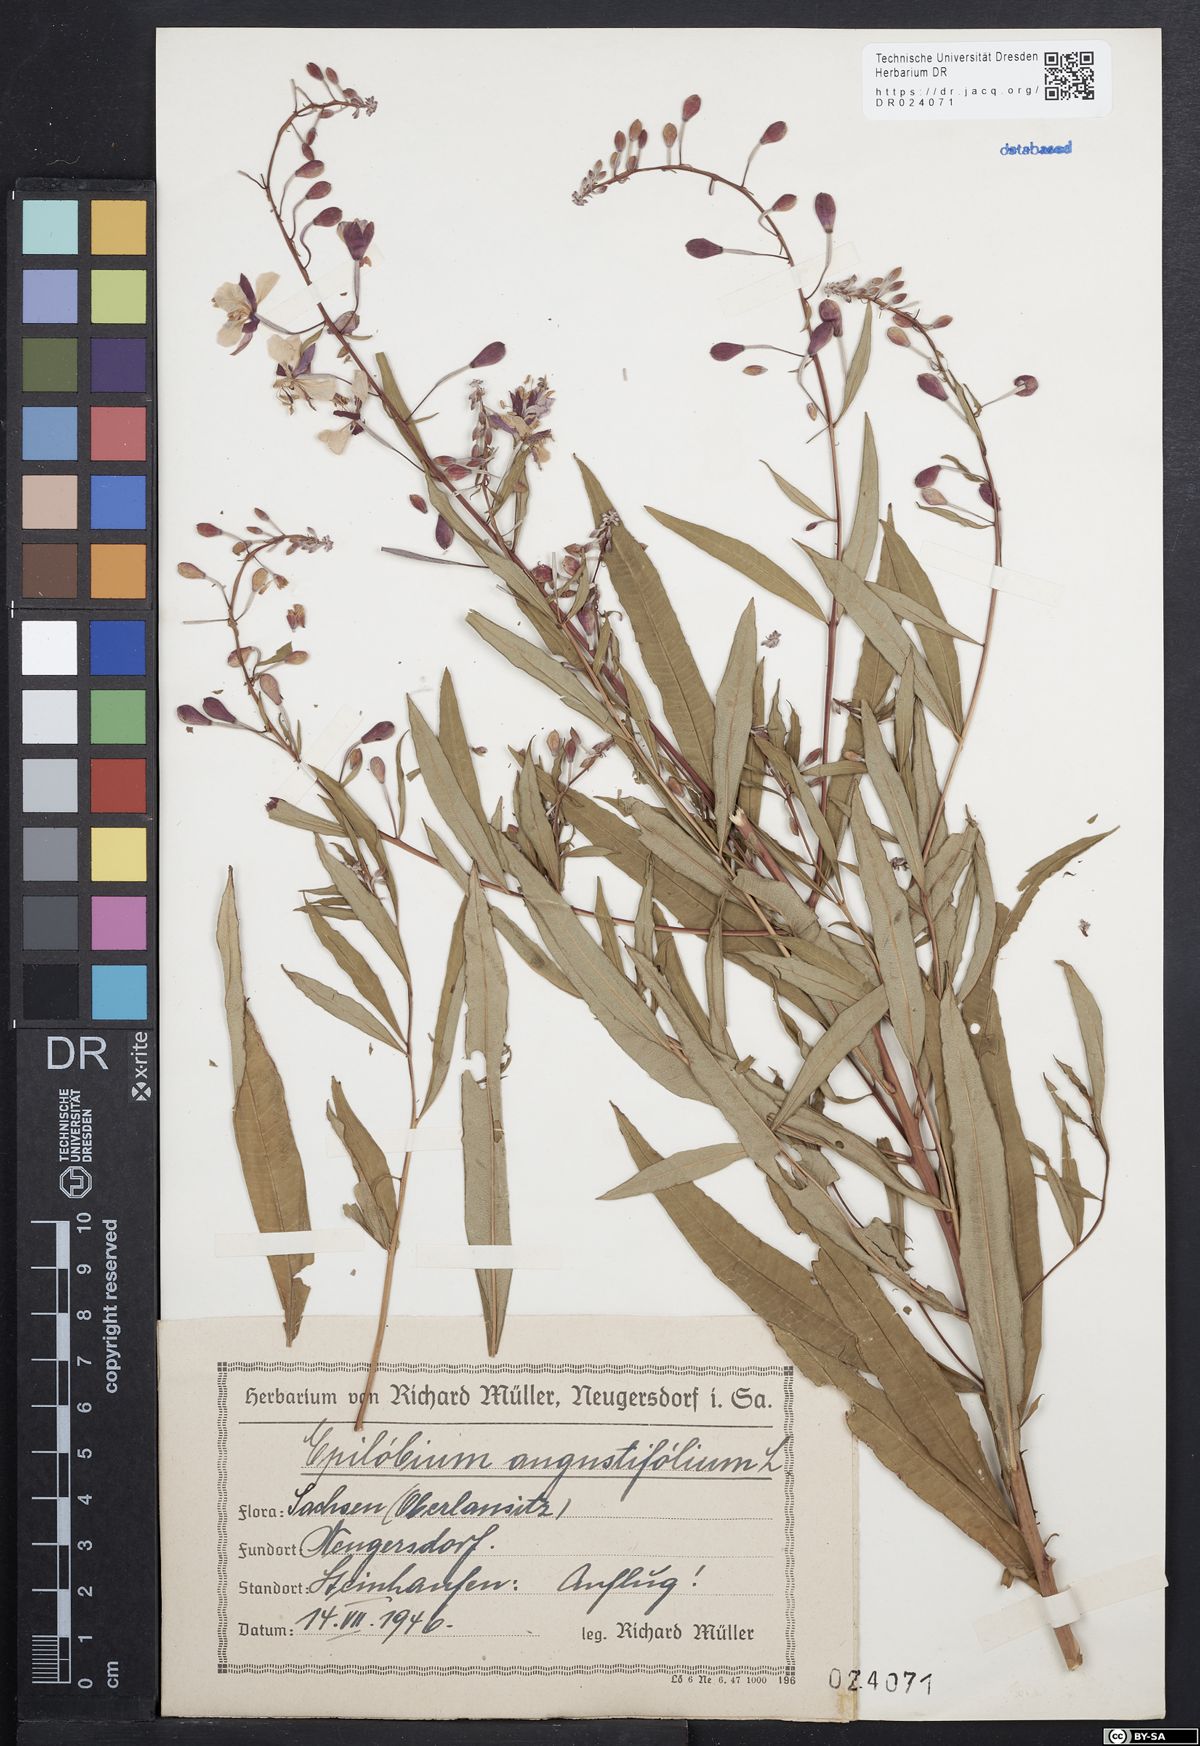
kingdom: Plantae
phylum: Tracheophyta
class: Magnoliopsida
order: Myrtales
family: Onagraceae
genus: Chamaenerion
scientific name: Chamaenerion angustifolium
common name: Fireweed
